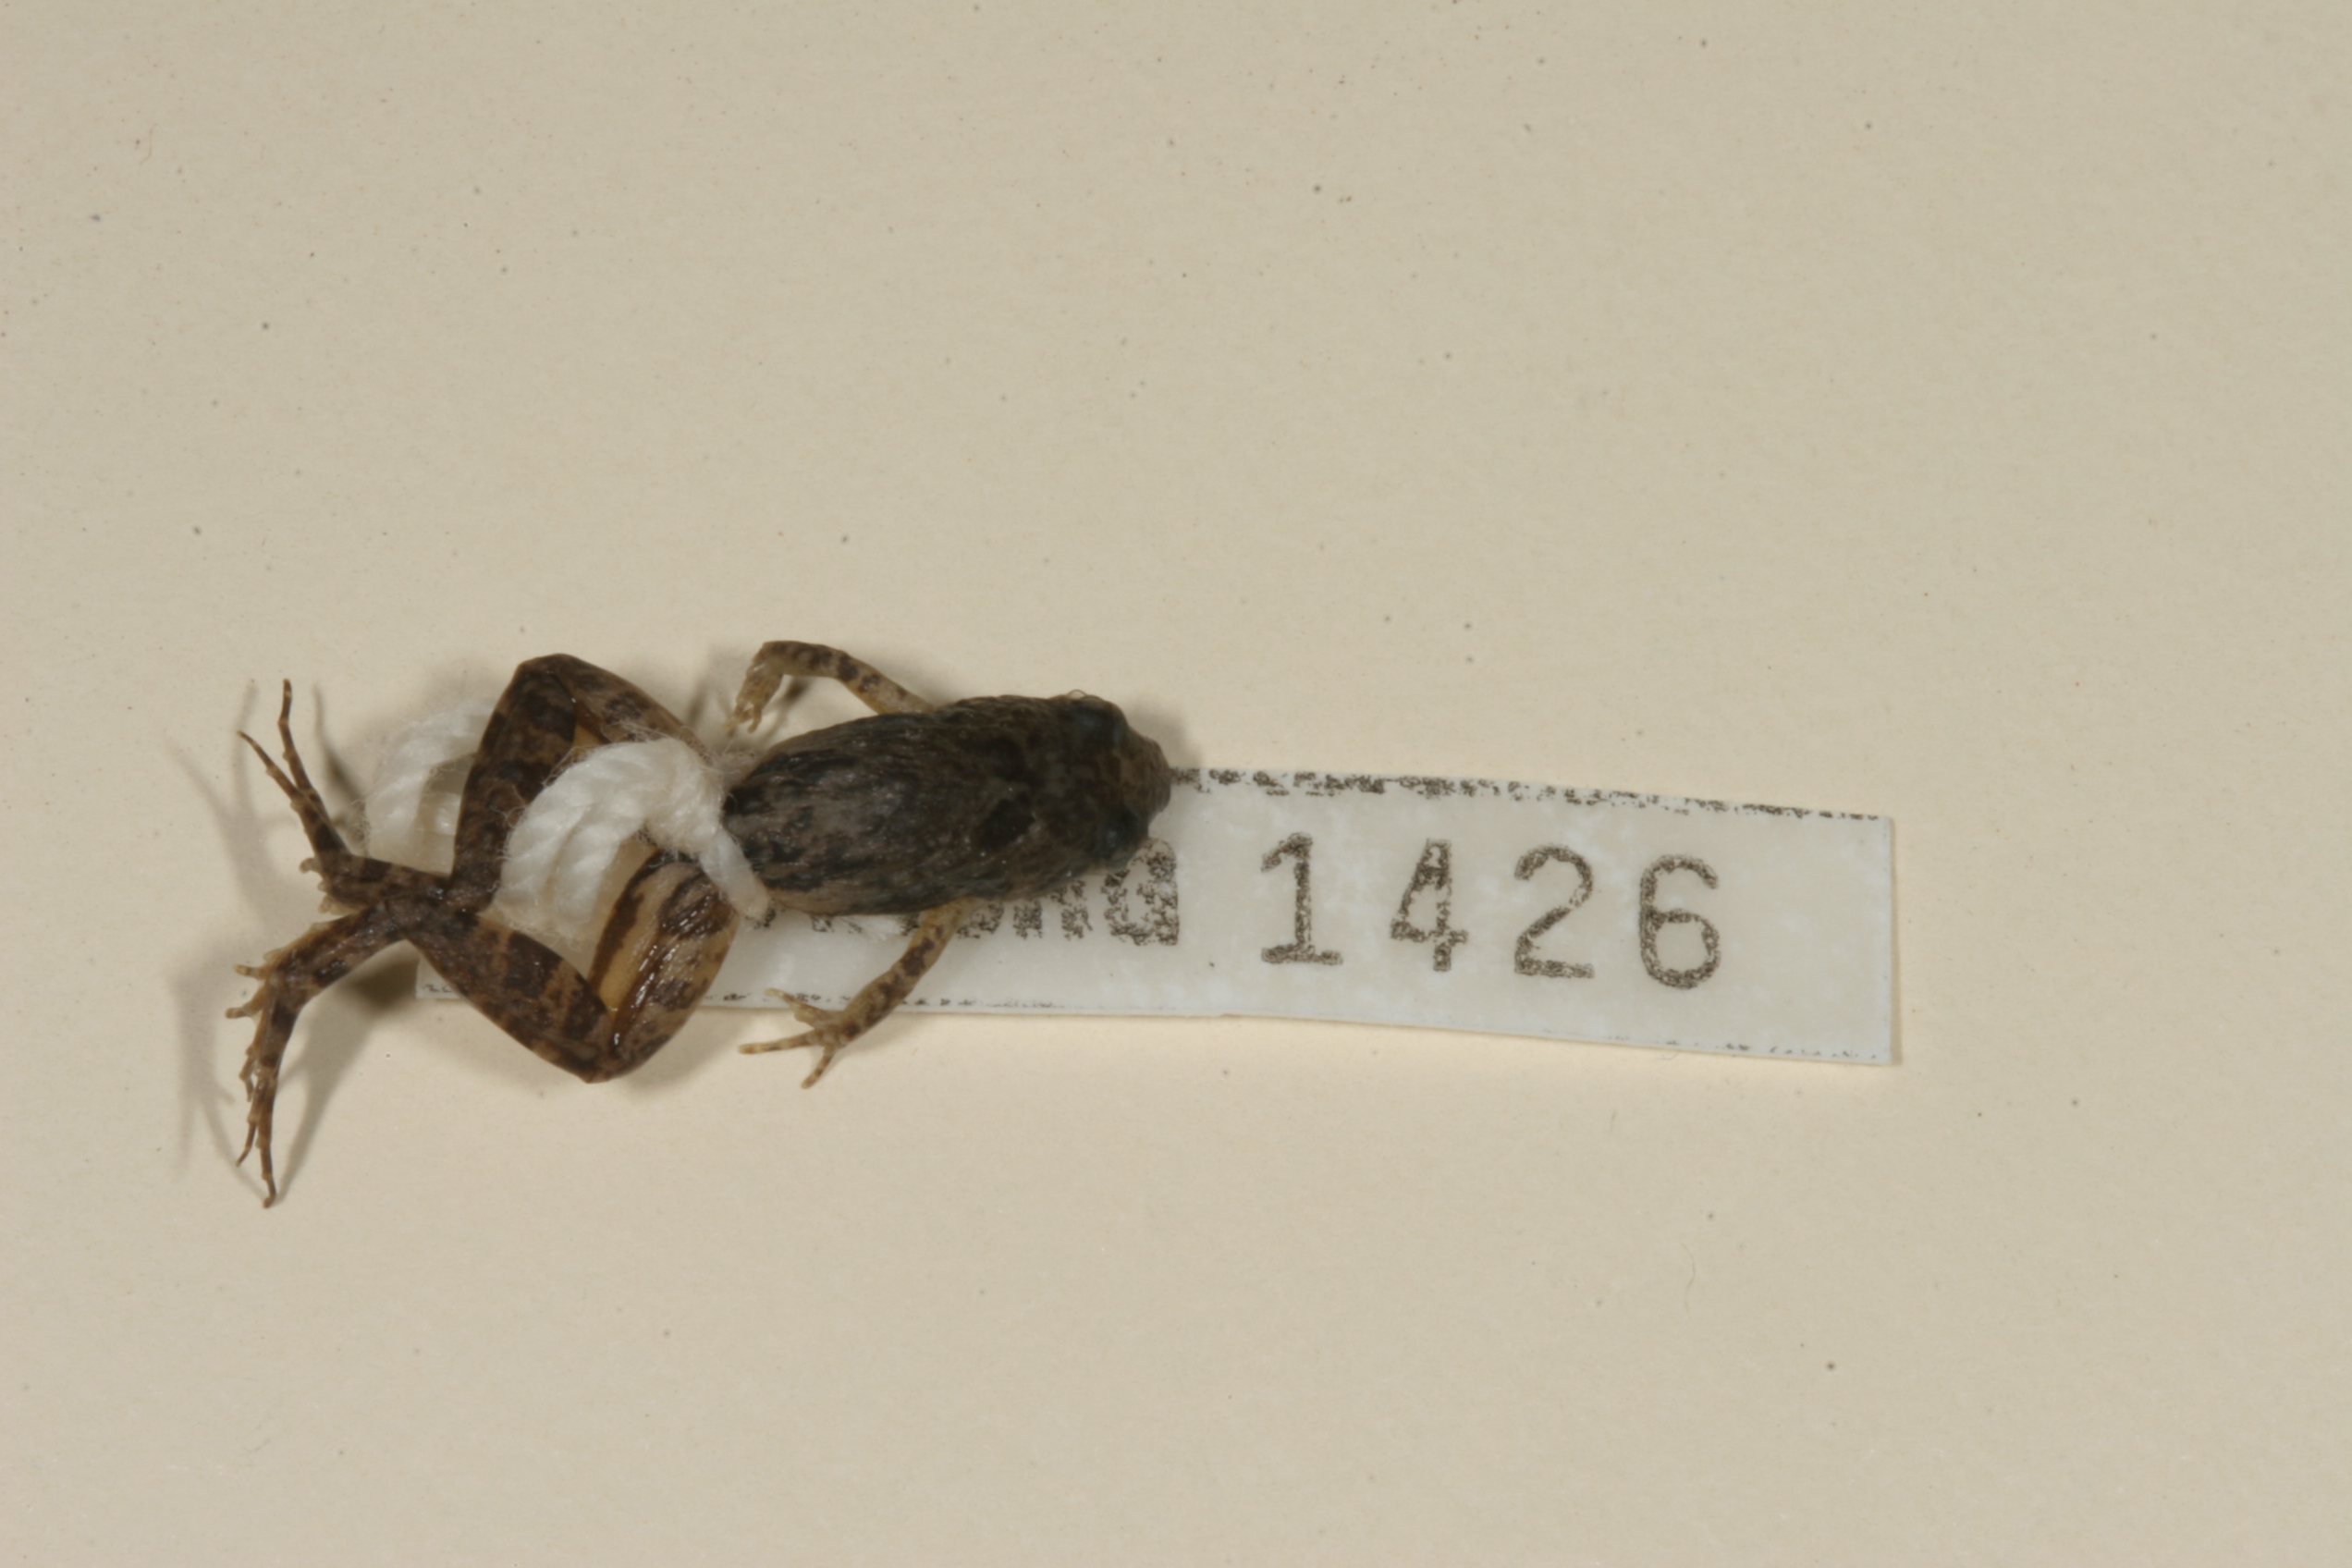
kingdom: Animalia
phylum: Chordata
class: Amphibia
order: Anura
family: Phrynobatrachidae
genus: Phrynobatrachus
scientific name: Phrynobatrachus mababiensis
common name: Dwarf puddle frog
